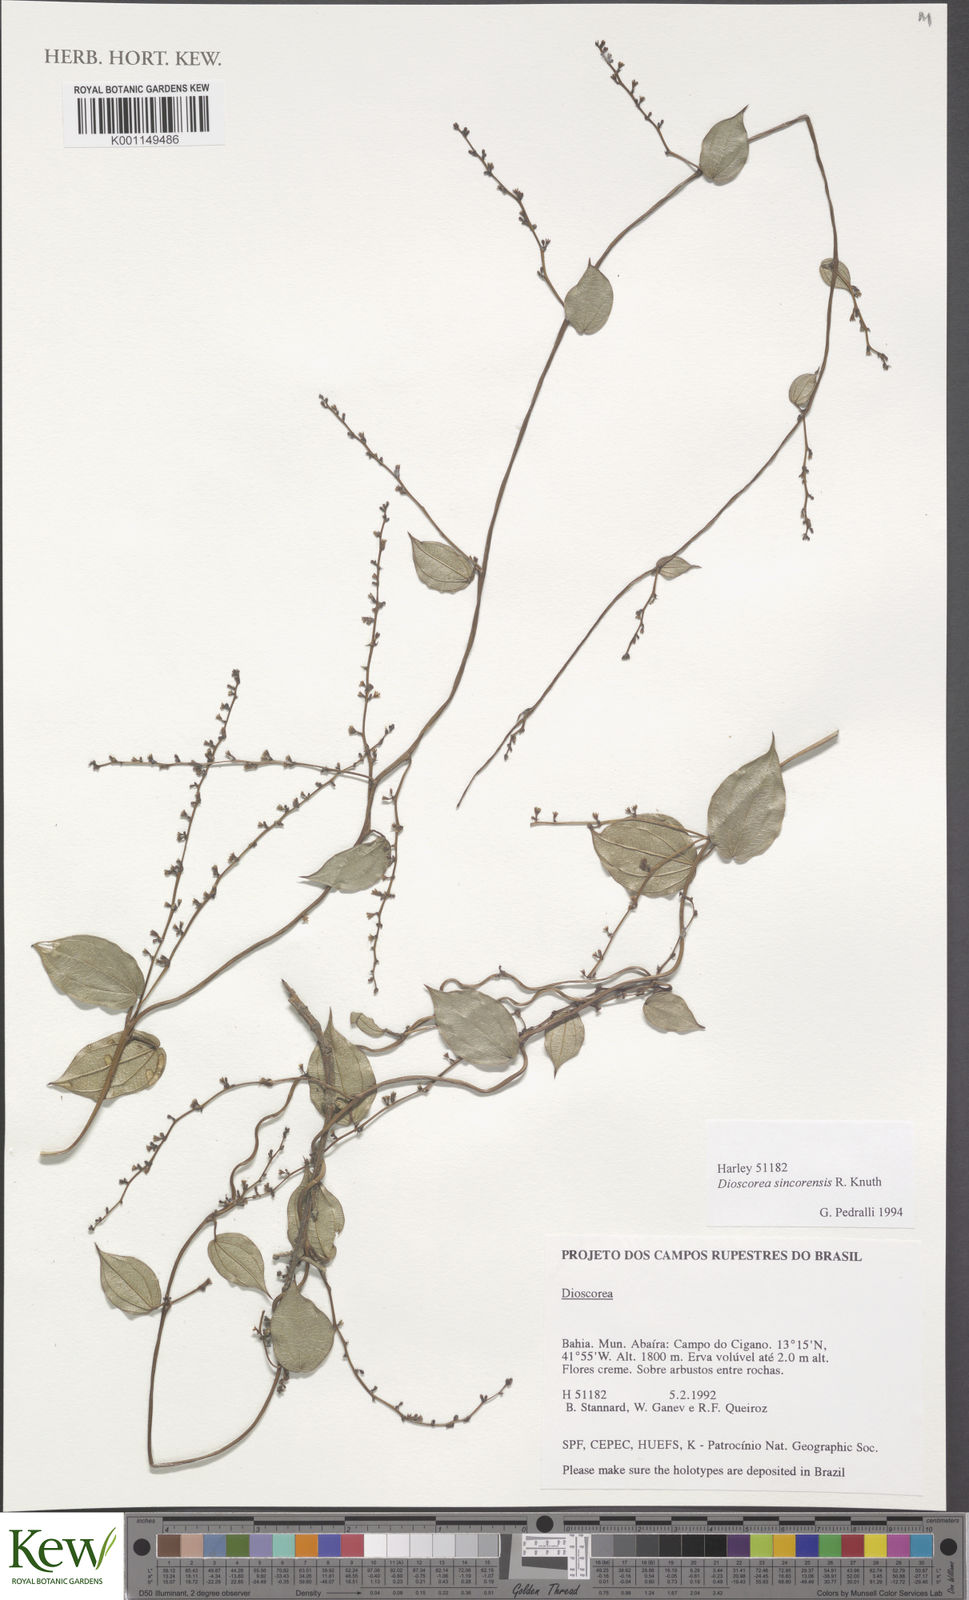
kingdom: Plantae
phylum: Tracheophyta
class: Liliopsida
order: Dioscoreales
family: Dioscoreaceae
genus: Dioscorea
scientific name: Dioscorea sincorensis
